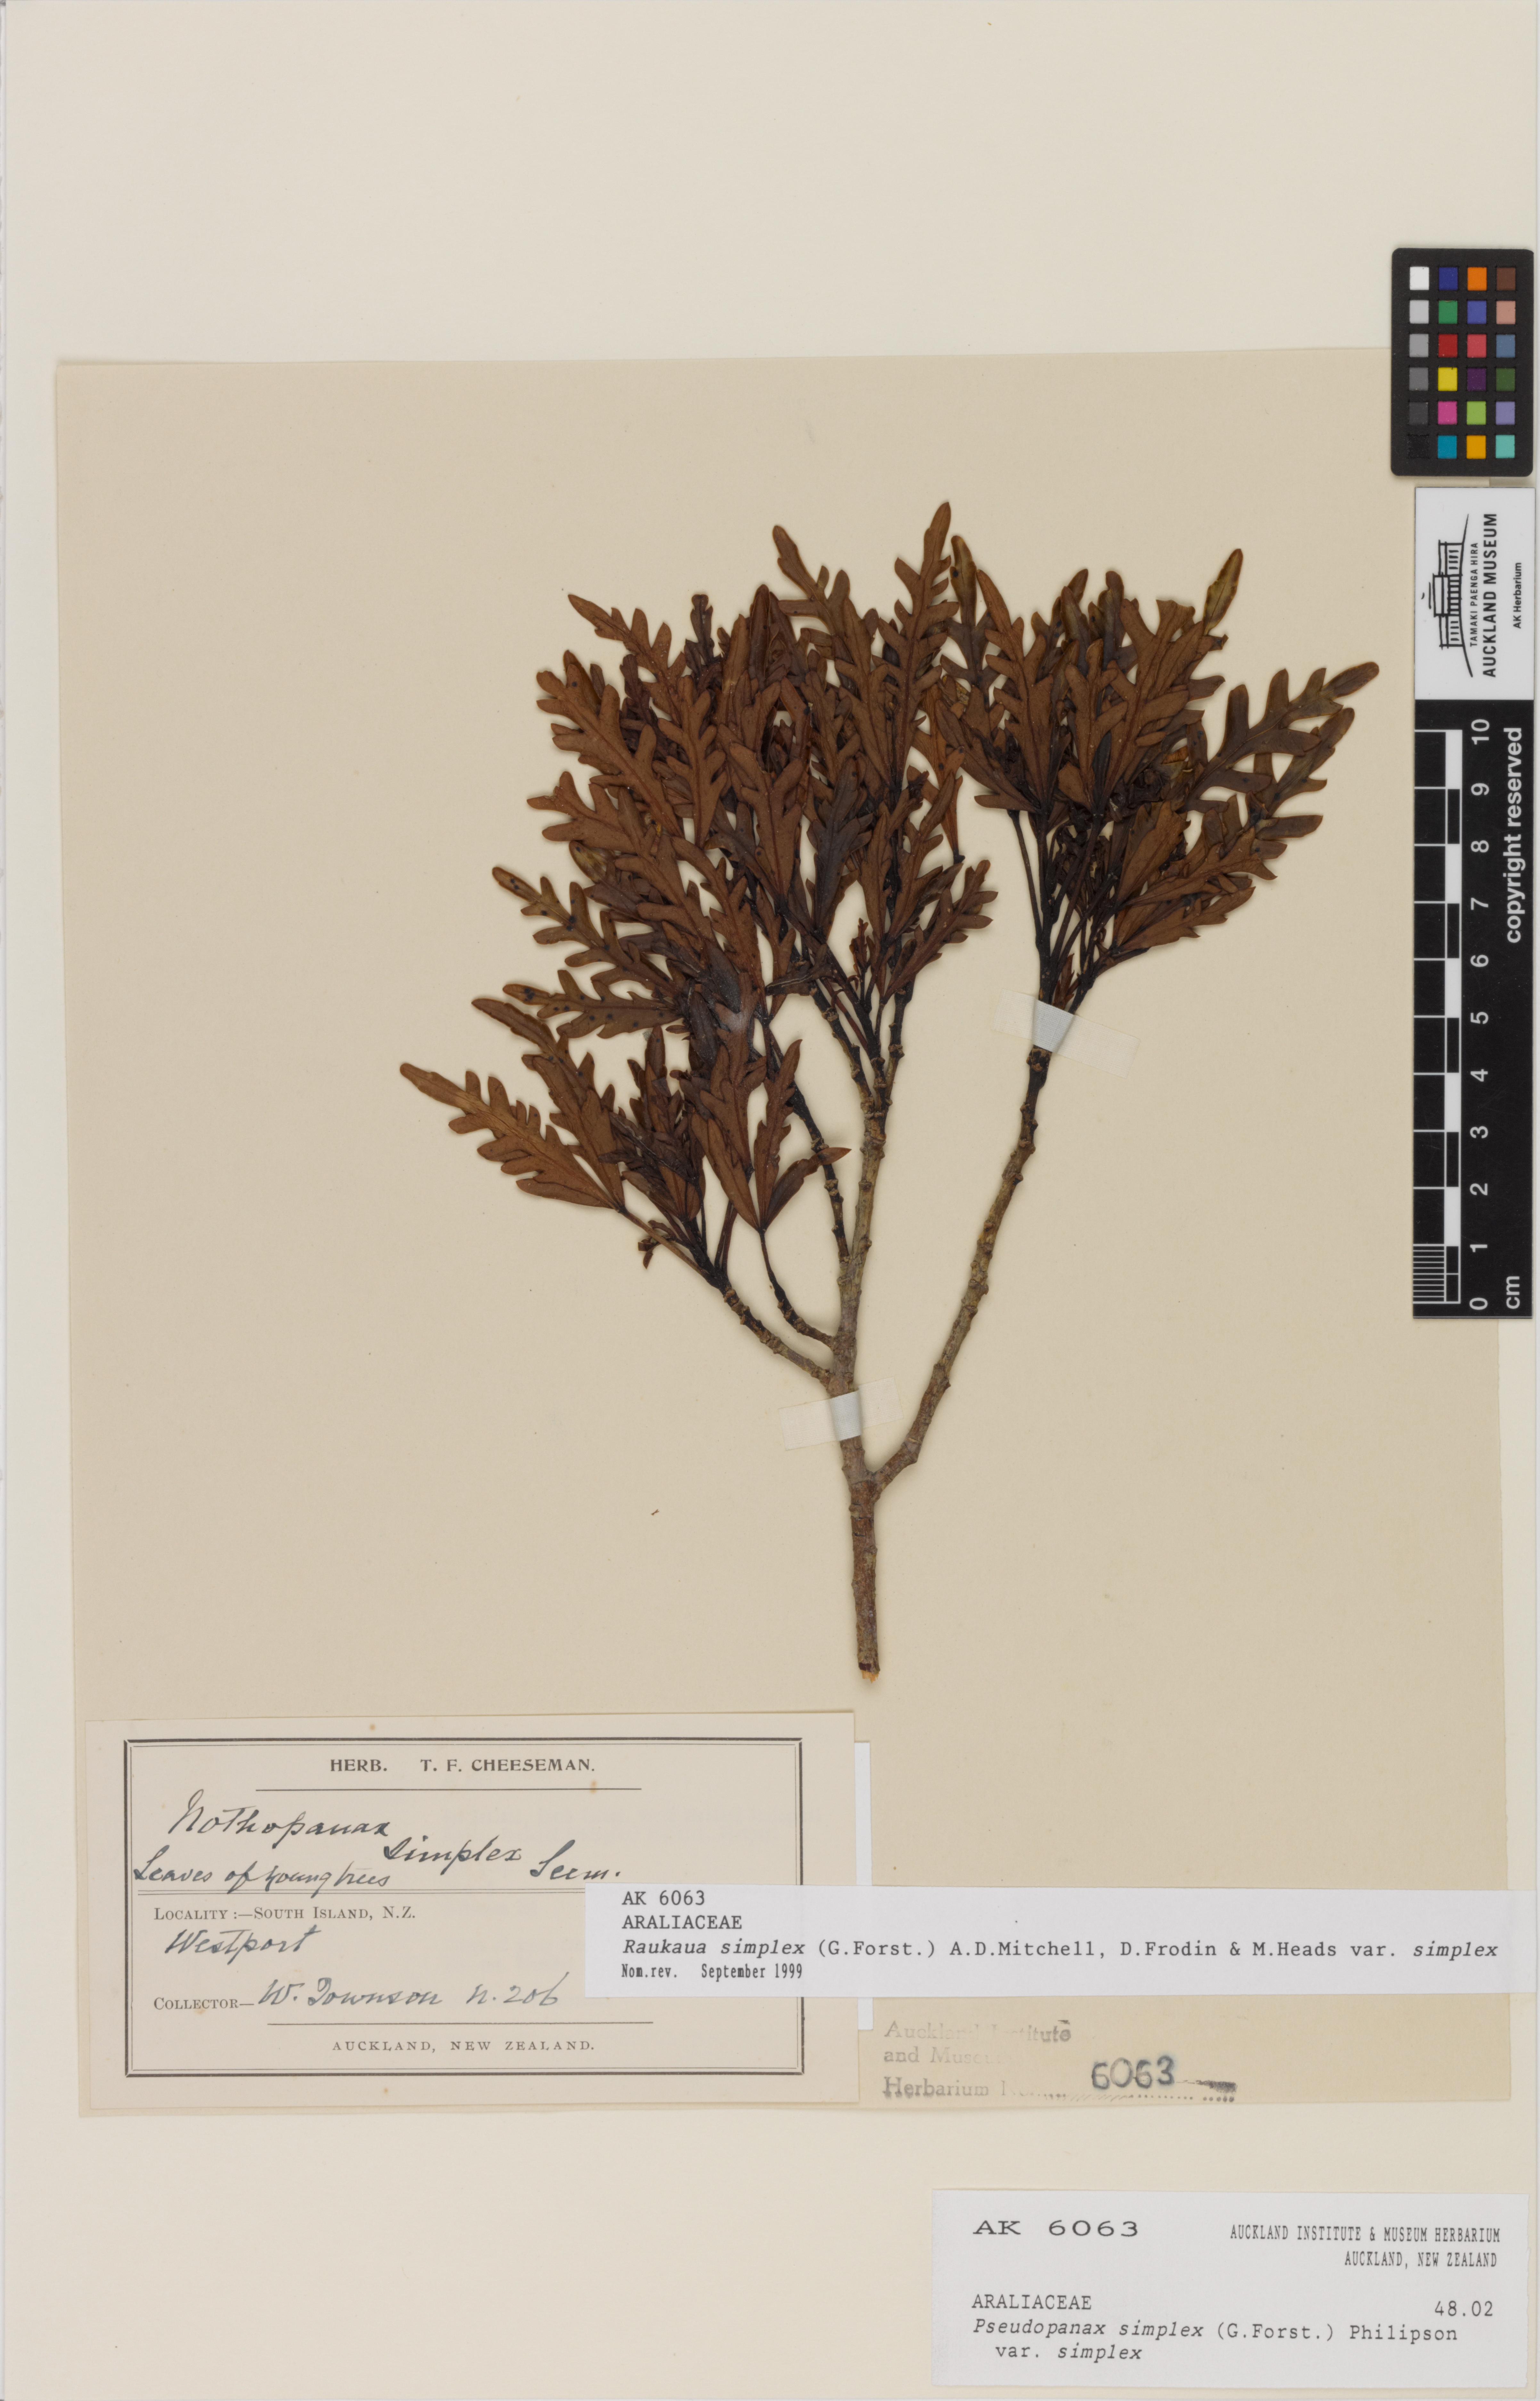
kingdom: Plantae
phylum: Tracheophyta
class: Magnoliopsida
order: Apiales
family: Araliaceae
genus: Raukaua
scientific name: Raukaua simplex
